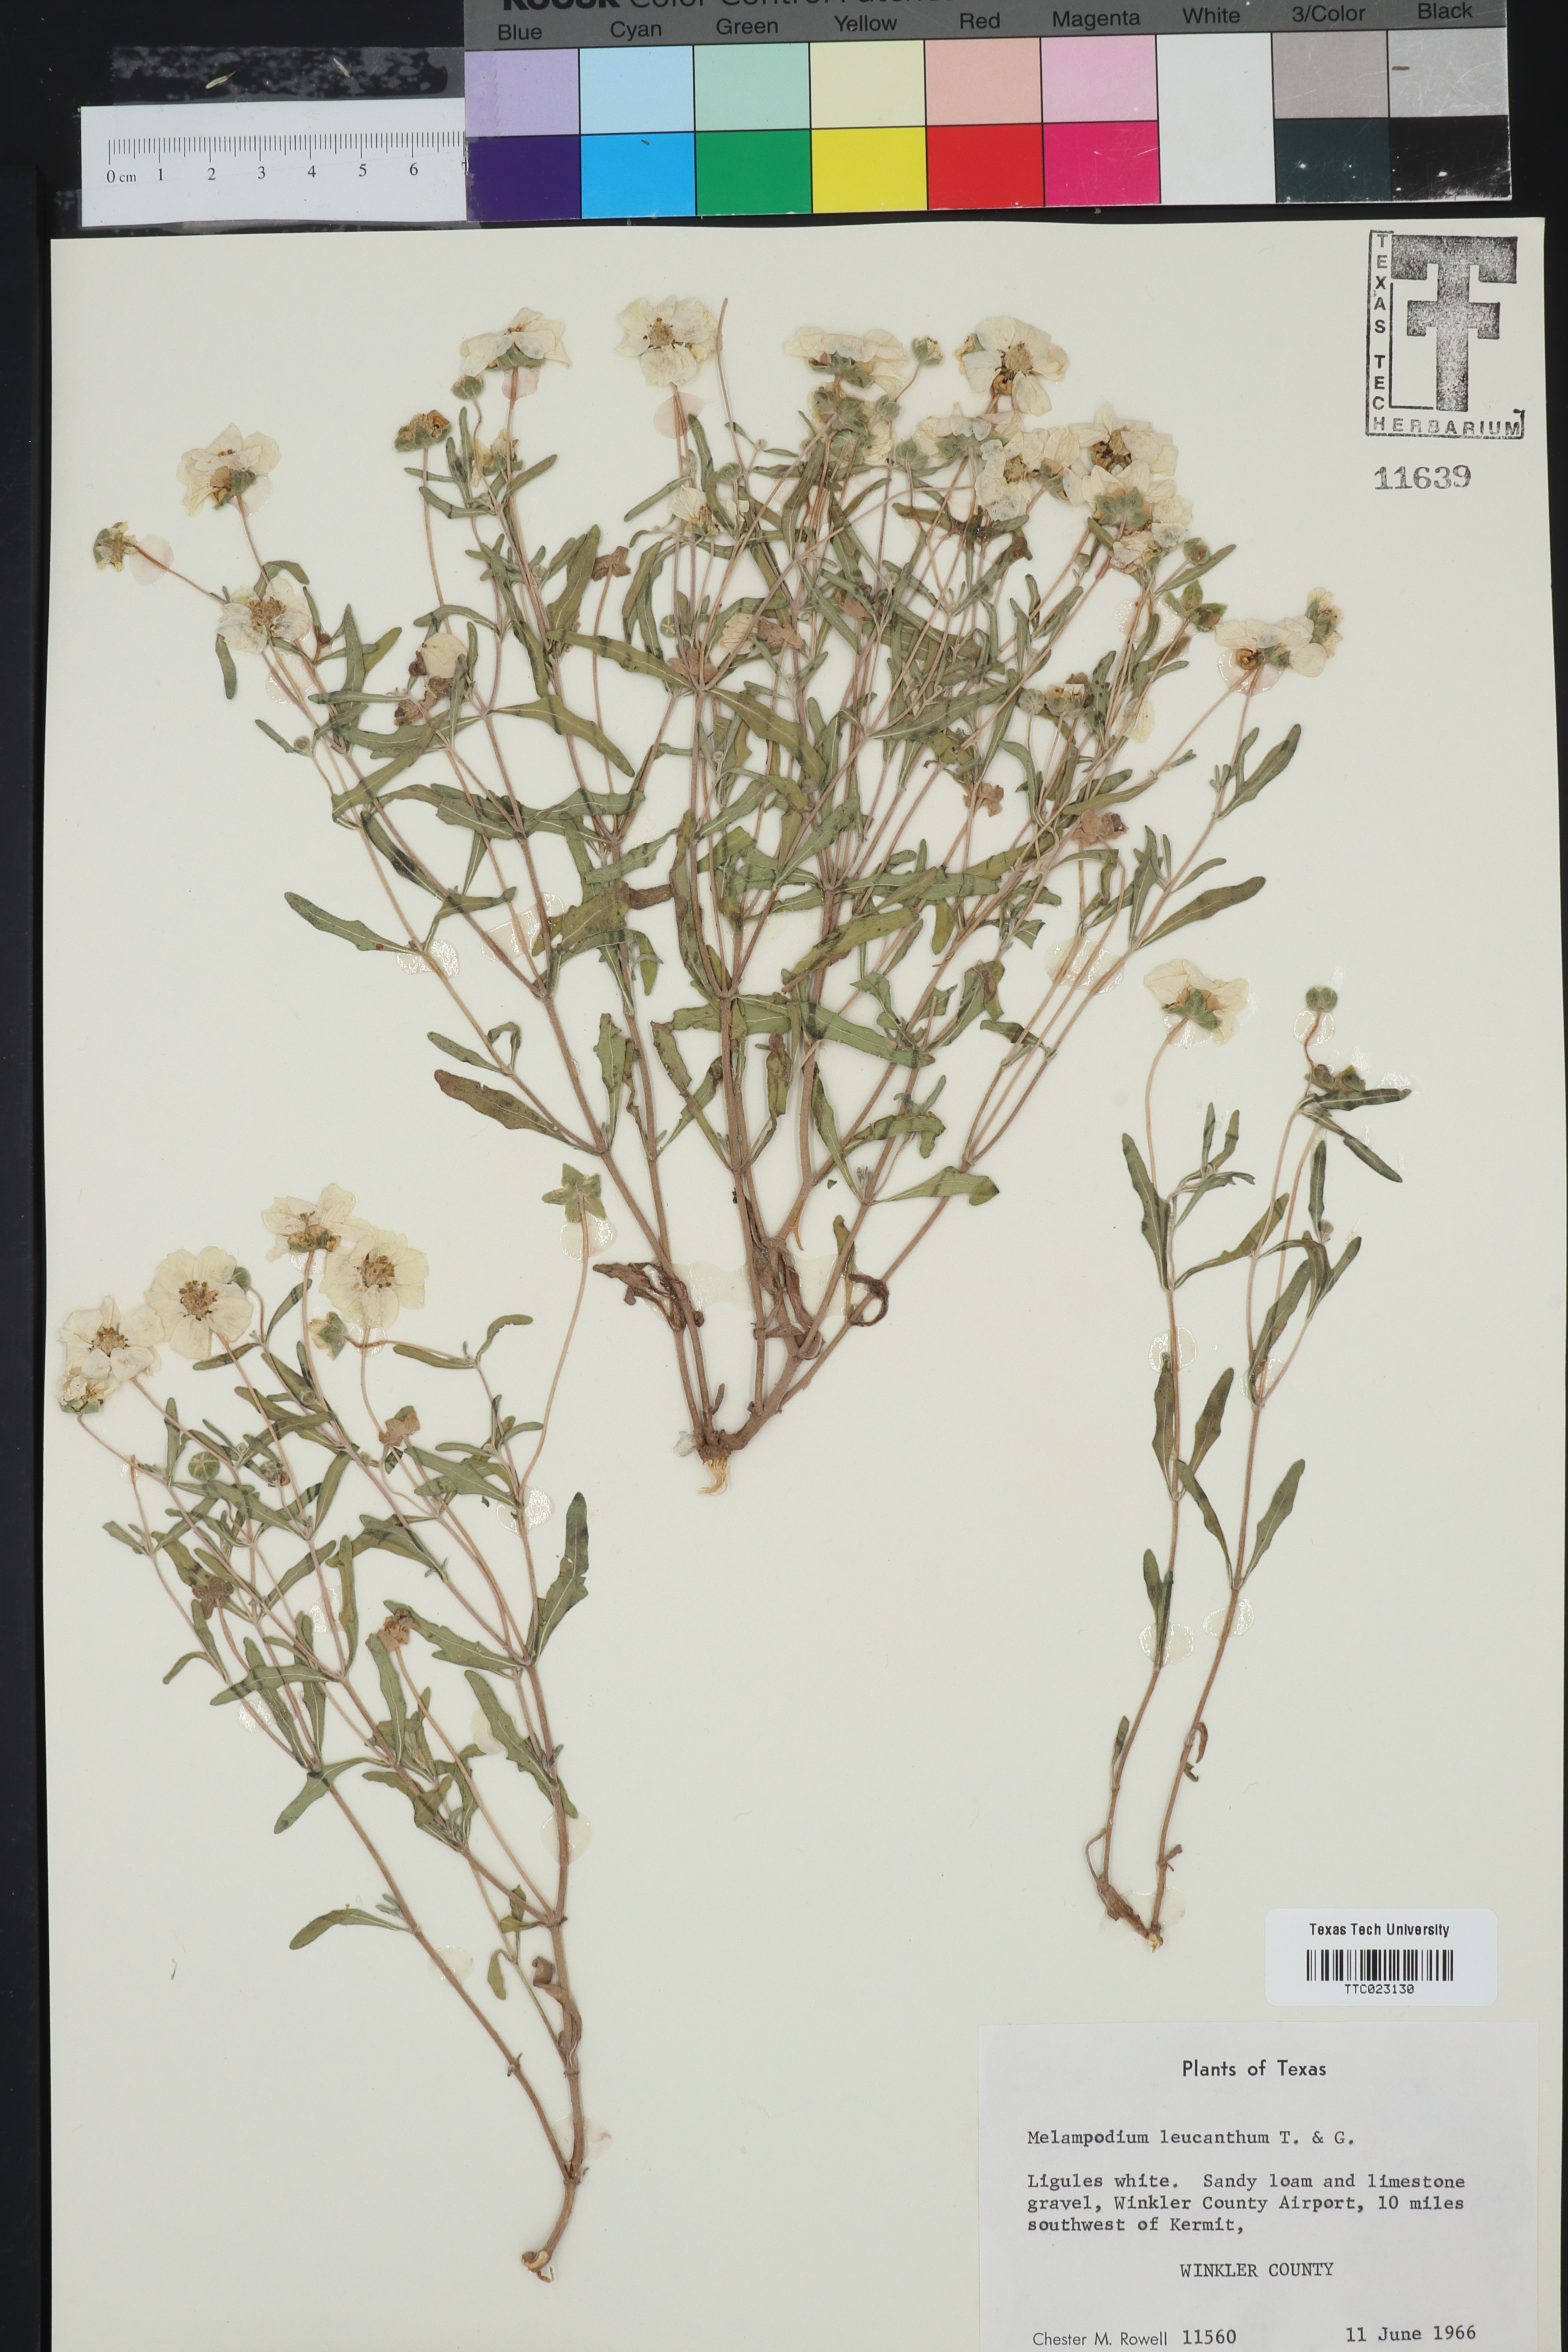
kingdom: Plantae
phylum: Tracheophyta
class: Magnoliopsida
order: Asterales
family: Asteraceae
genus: Melampodium
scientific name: Melampodium leucanthum
